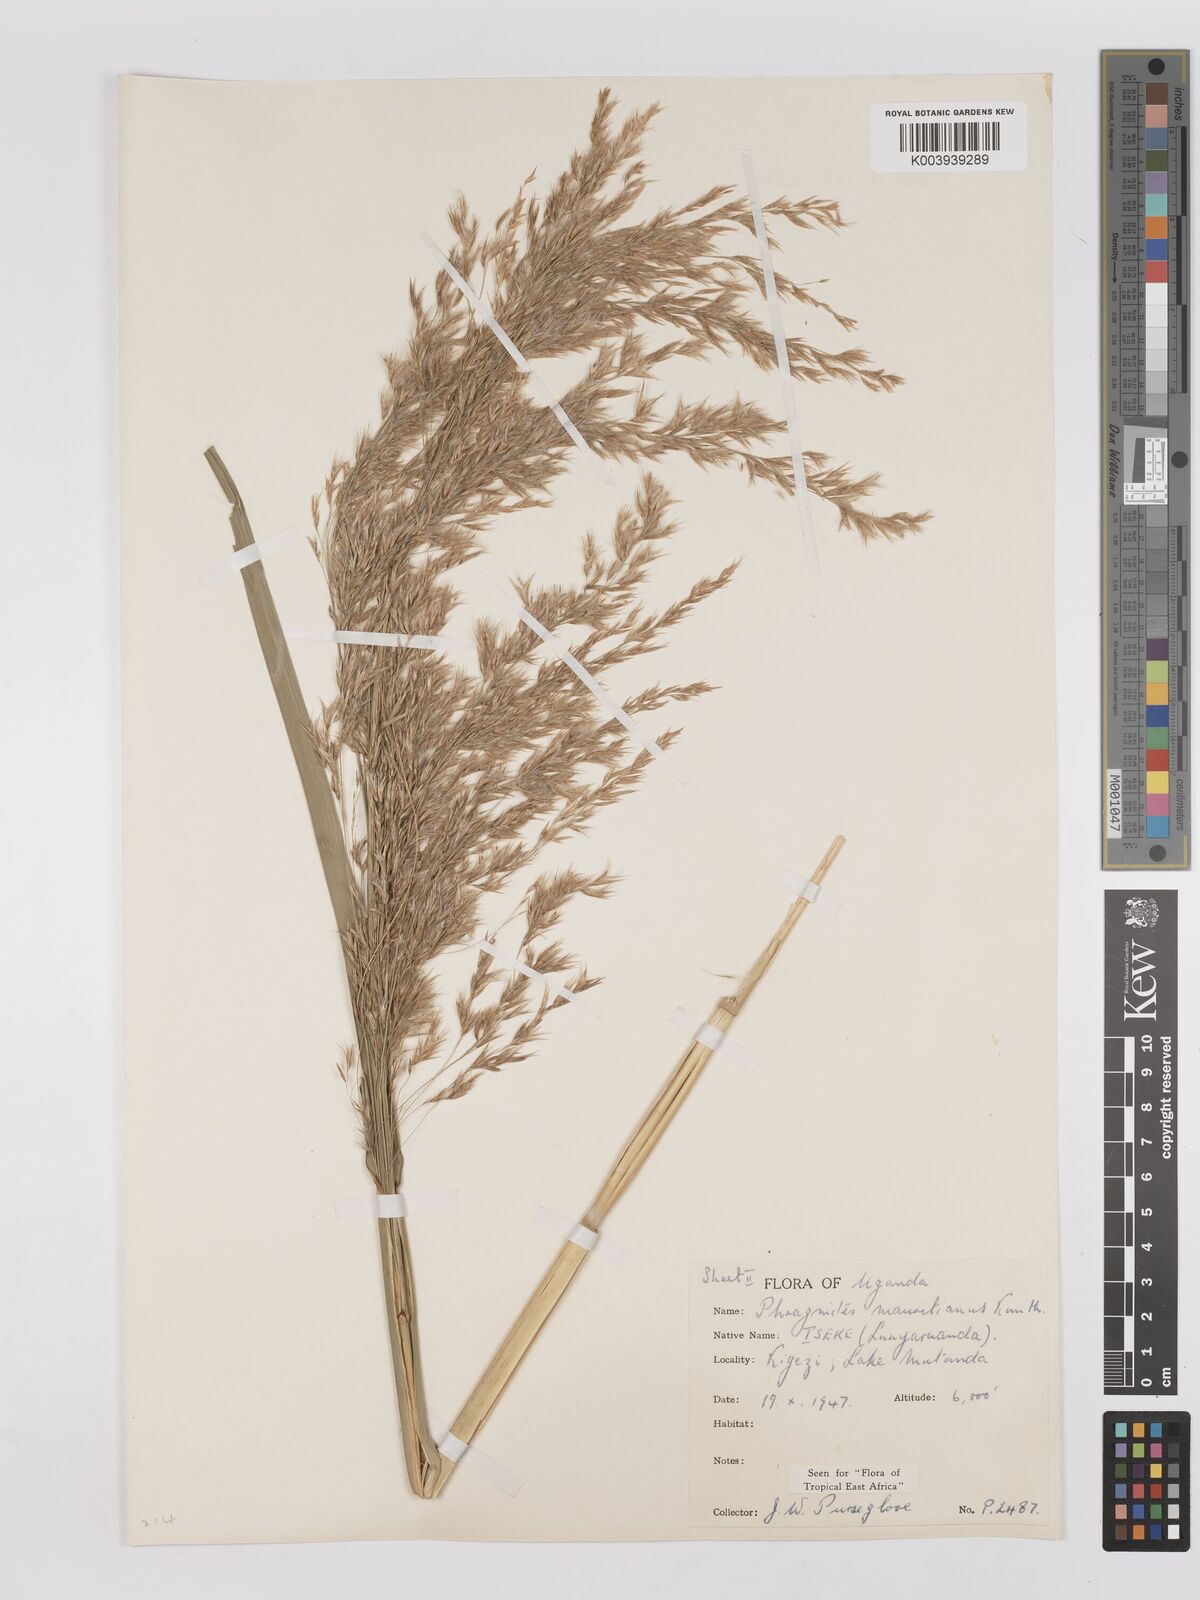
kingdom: Plantae
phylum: Tracheophyta
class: Liliopsida
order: Poales
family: Poaceae
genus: Phragmites
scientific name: Phragmites mauritianus
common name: Reed grass
